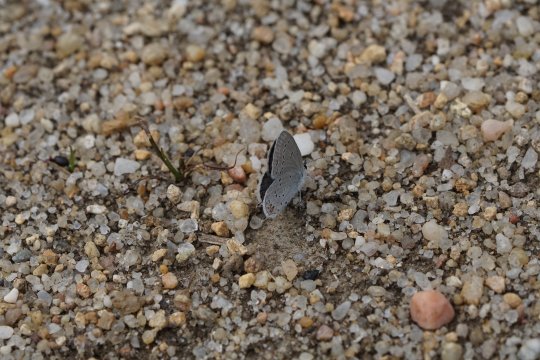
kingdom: Animalia
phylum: Arthropoda
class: Insecta
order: Lepidoptera
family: Lycaenidae
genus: Elkalyce
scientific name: Elkalyce comyntas
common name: Eastern Tailed-Blue
